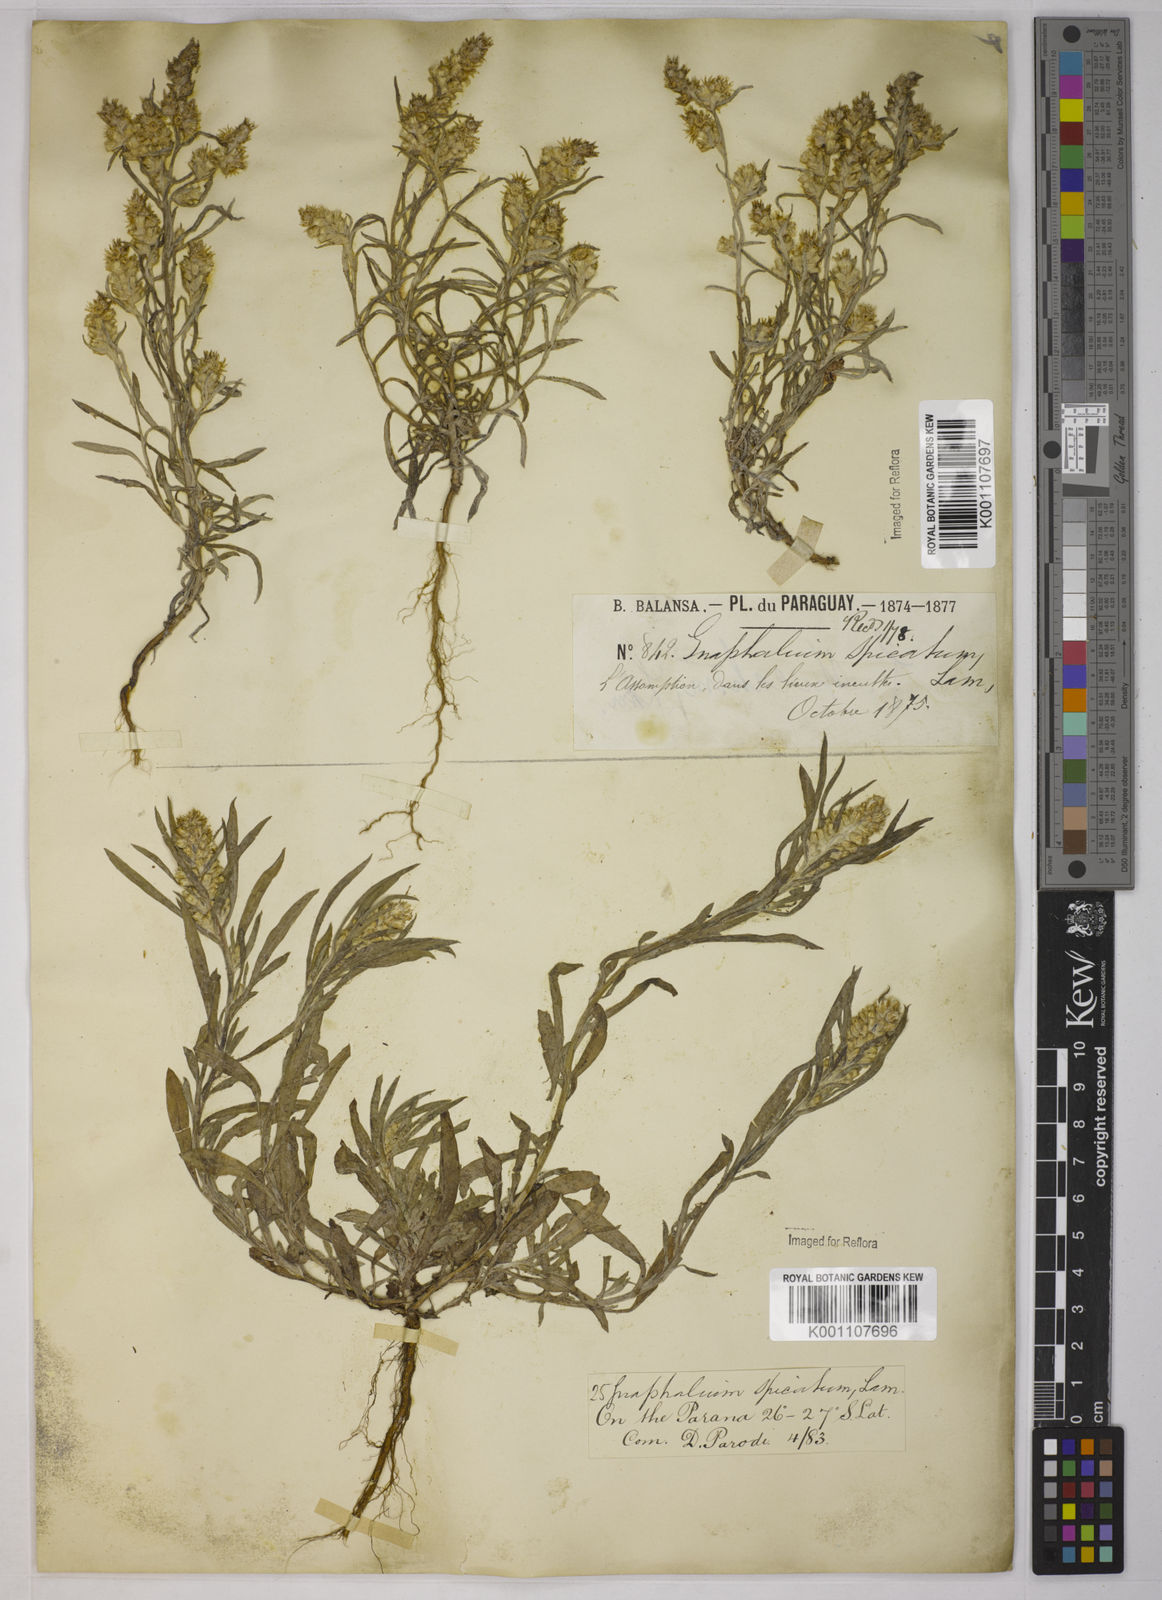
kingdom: Plantae
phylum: Tracheophyta
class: Magnoliopsida
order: Asterales
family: Asteraceae
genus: Gamochaeta
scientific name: Gamochaeta purpurea
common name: Purple cudweed
